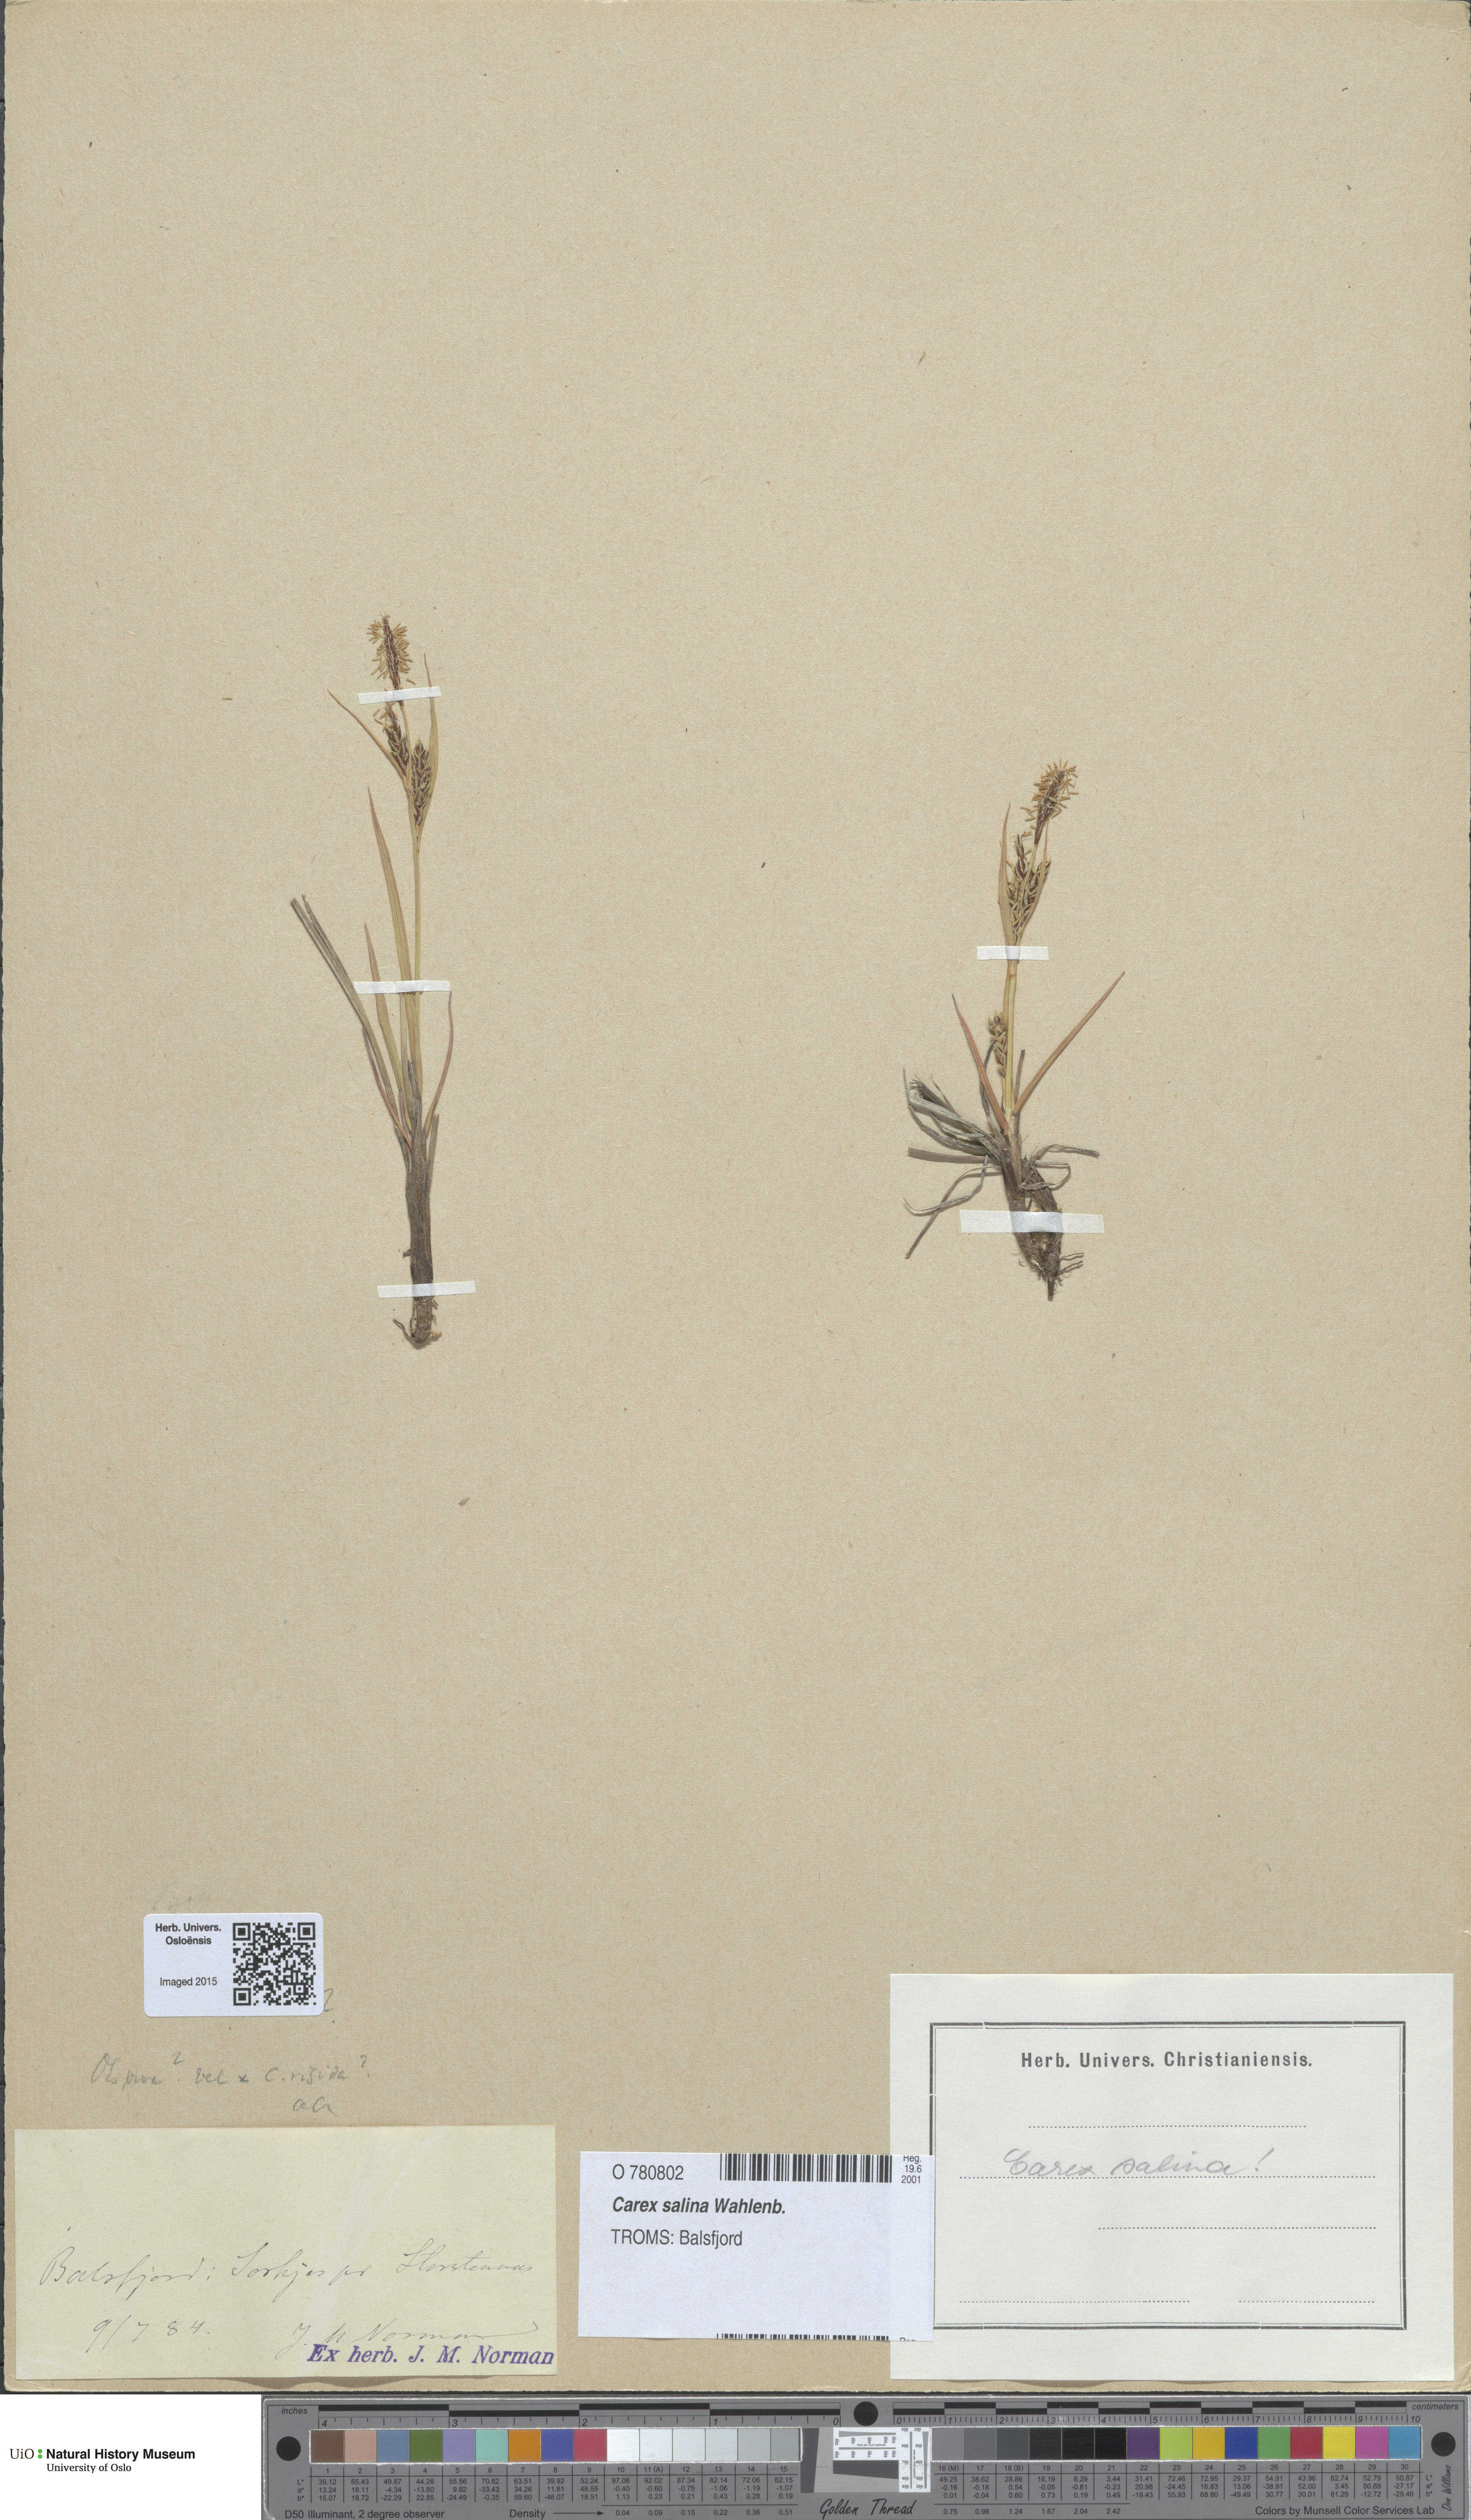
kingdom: Plantae
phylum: Tracheophyta
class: Liliopsida
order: Poales
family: Cyperaceae
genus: Carex
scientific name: Carex salina
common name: Saltmarsh sedge
